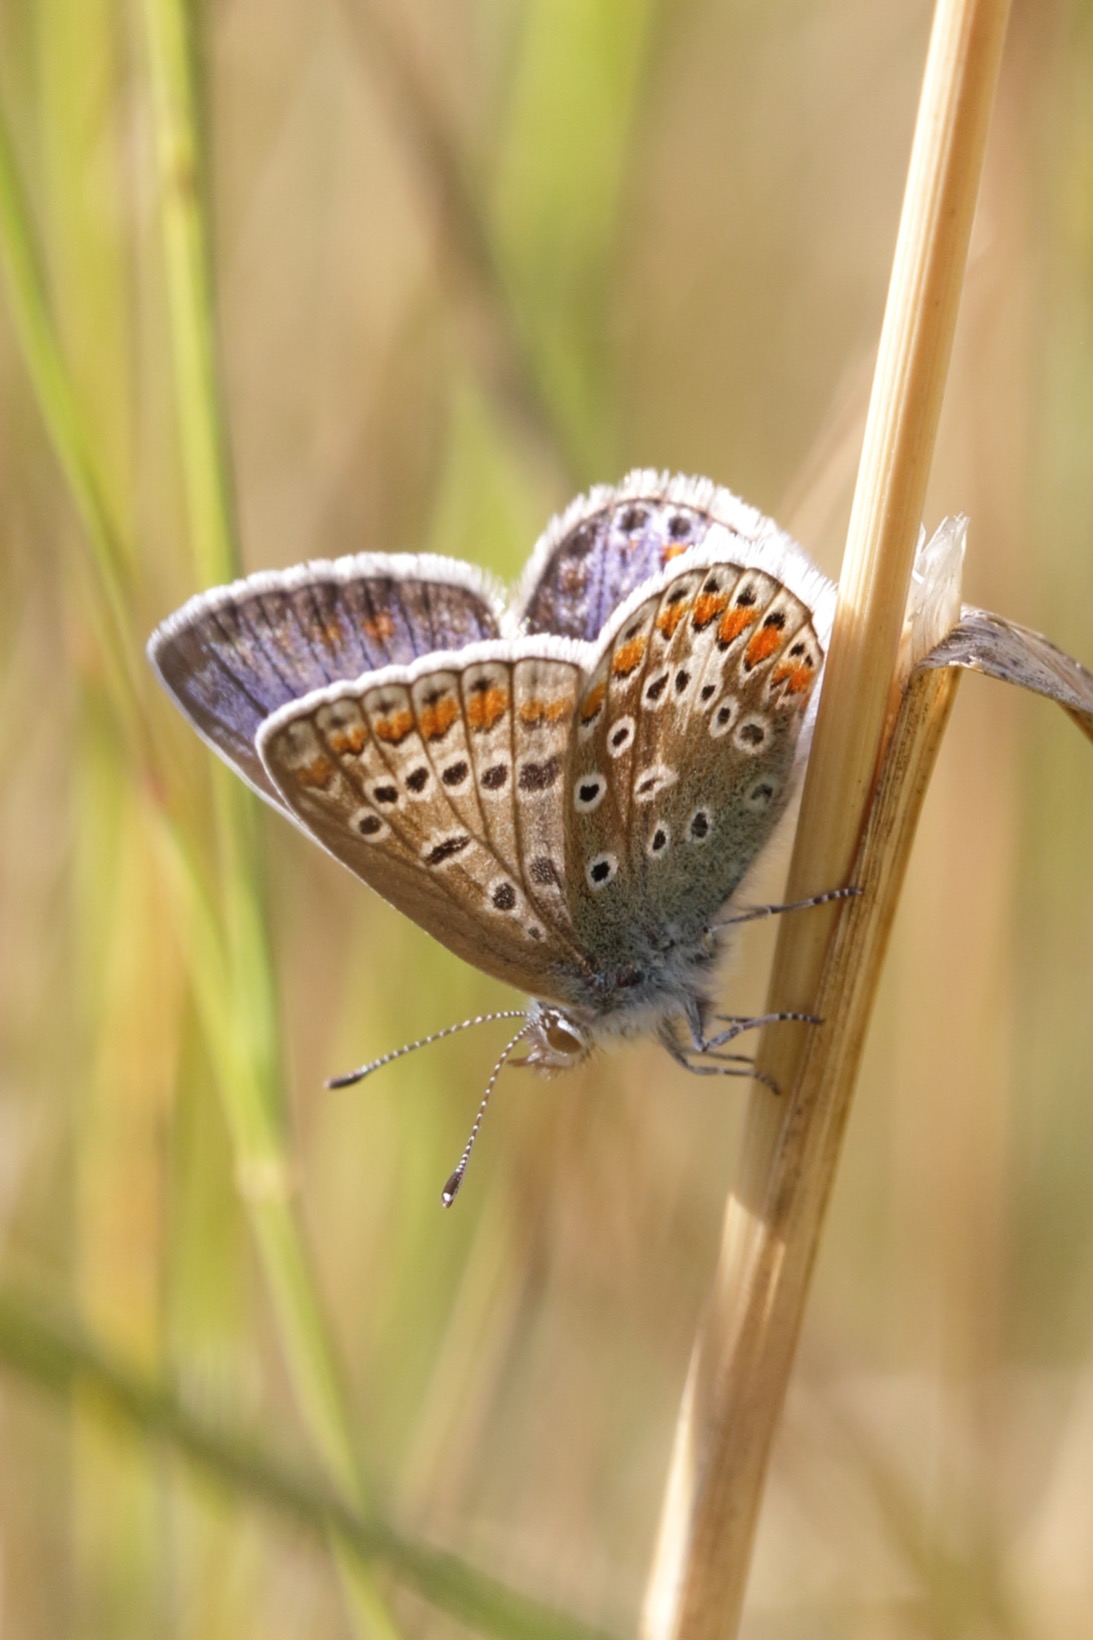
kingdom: Animalia
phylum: Arthropoda
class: Insecta
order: Lepidoptera
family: Lycaenidae
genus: Polyommatus
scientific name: Polyommatus icarus
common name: Almindelig blåfugl
